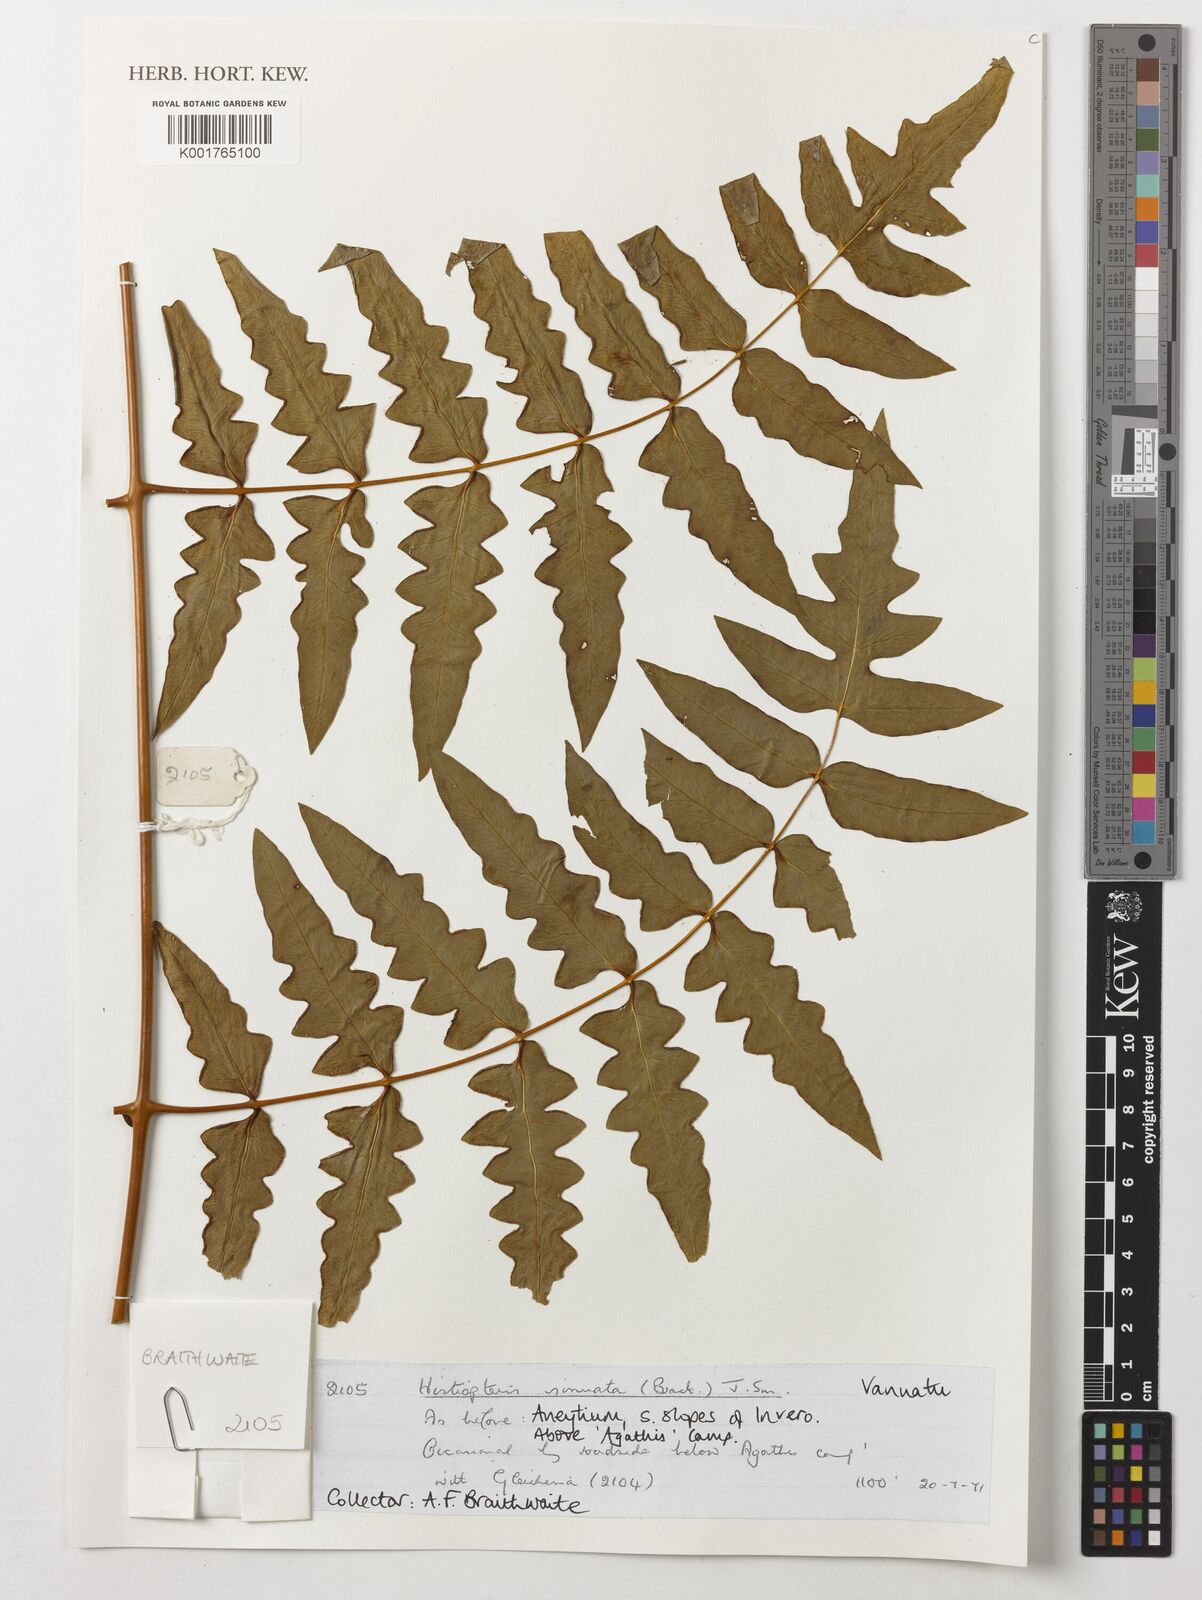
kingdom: Plantae
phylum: Tracheophyta
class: Polypodiopsida
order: Polypodiales
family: Dennstaedtiaceae
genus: Histiopteris
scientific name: Histiopteris incisa
